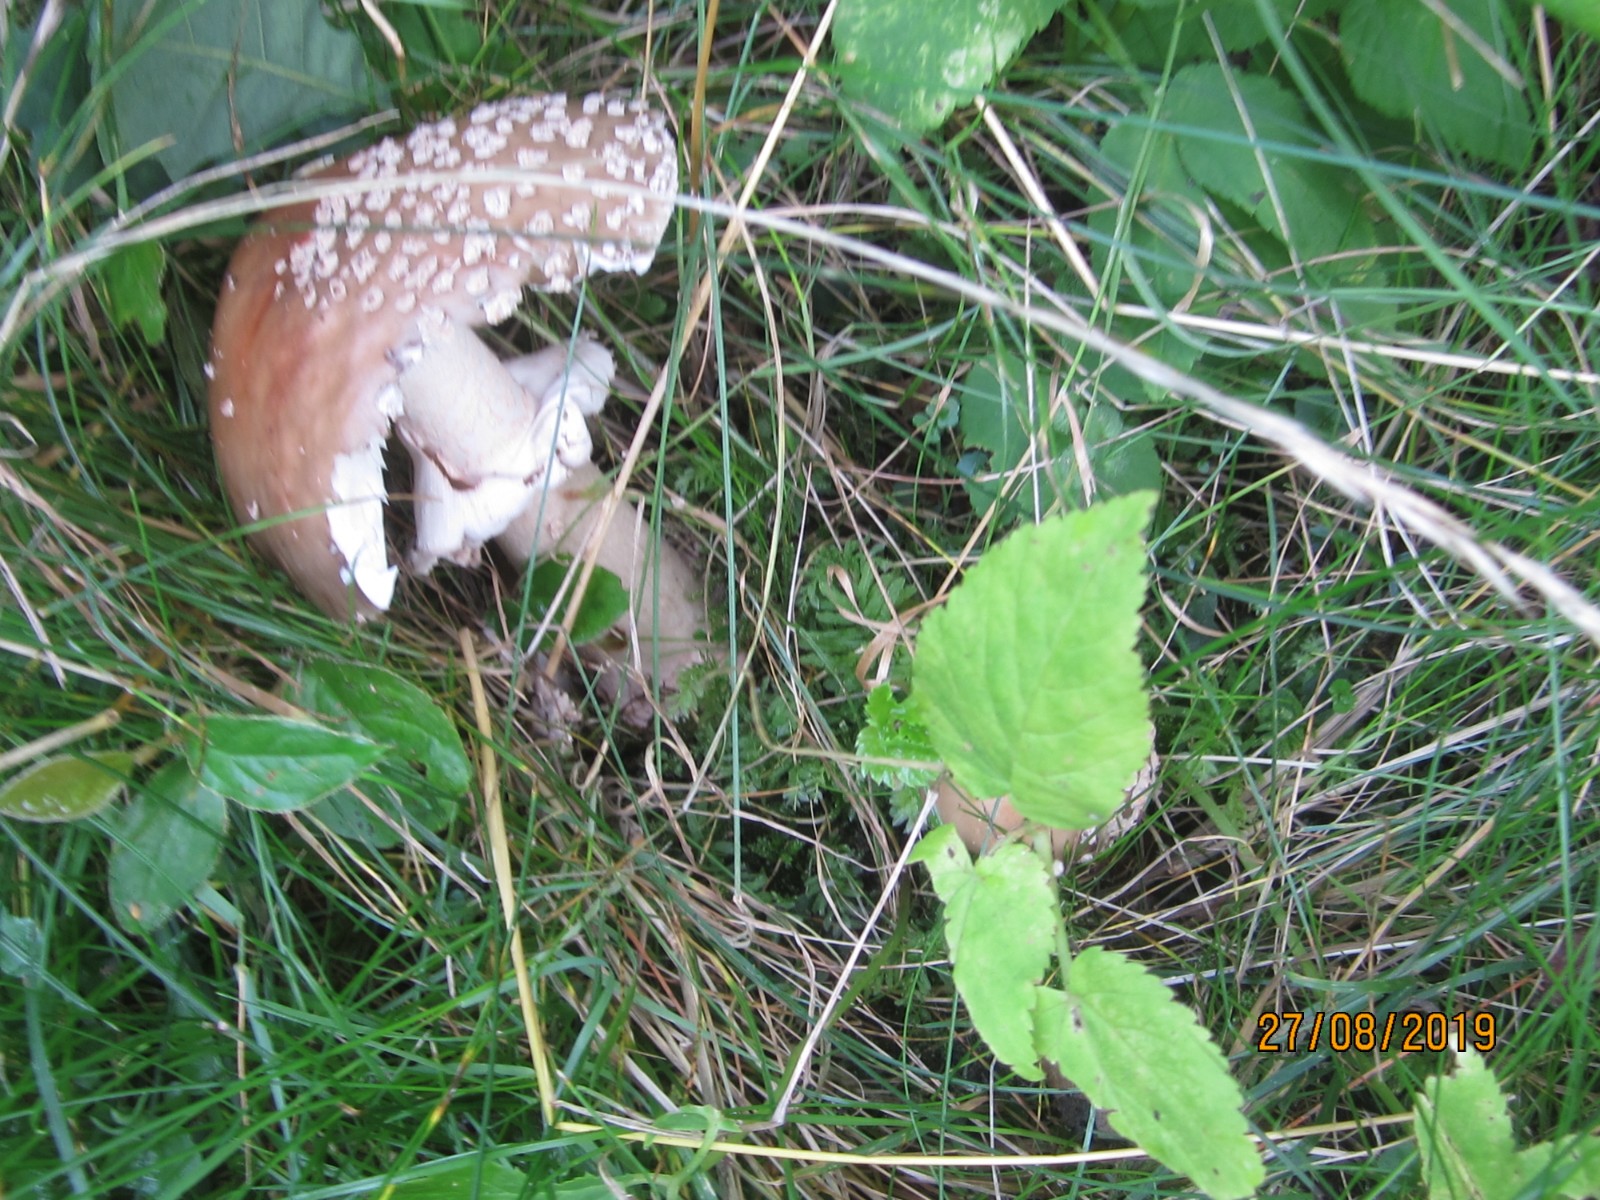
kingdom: Fungi
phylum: Basidiomycota
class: Agaricomycetes
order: Agaricales
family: Amanitaceae
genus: Amanita
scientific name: Amanita rubescens
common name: rødmende fluesvamp
